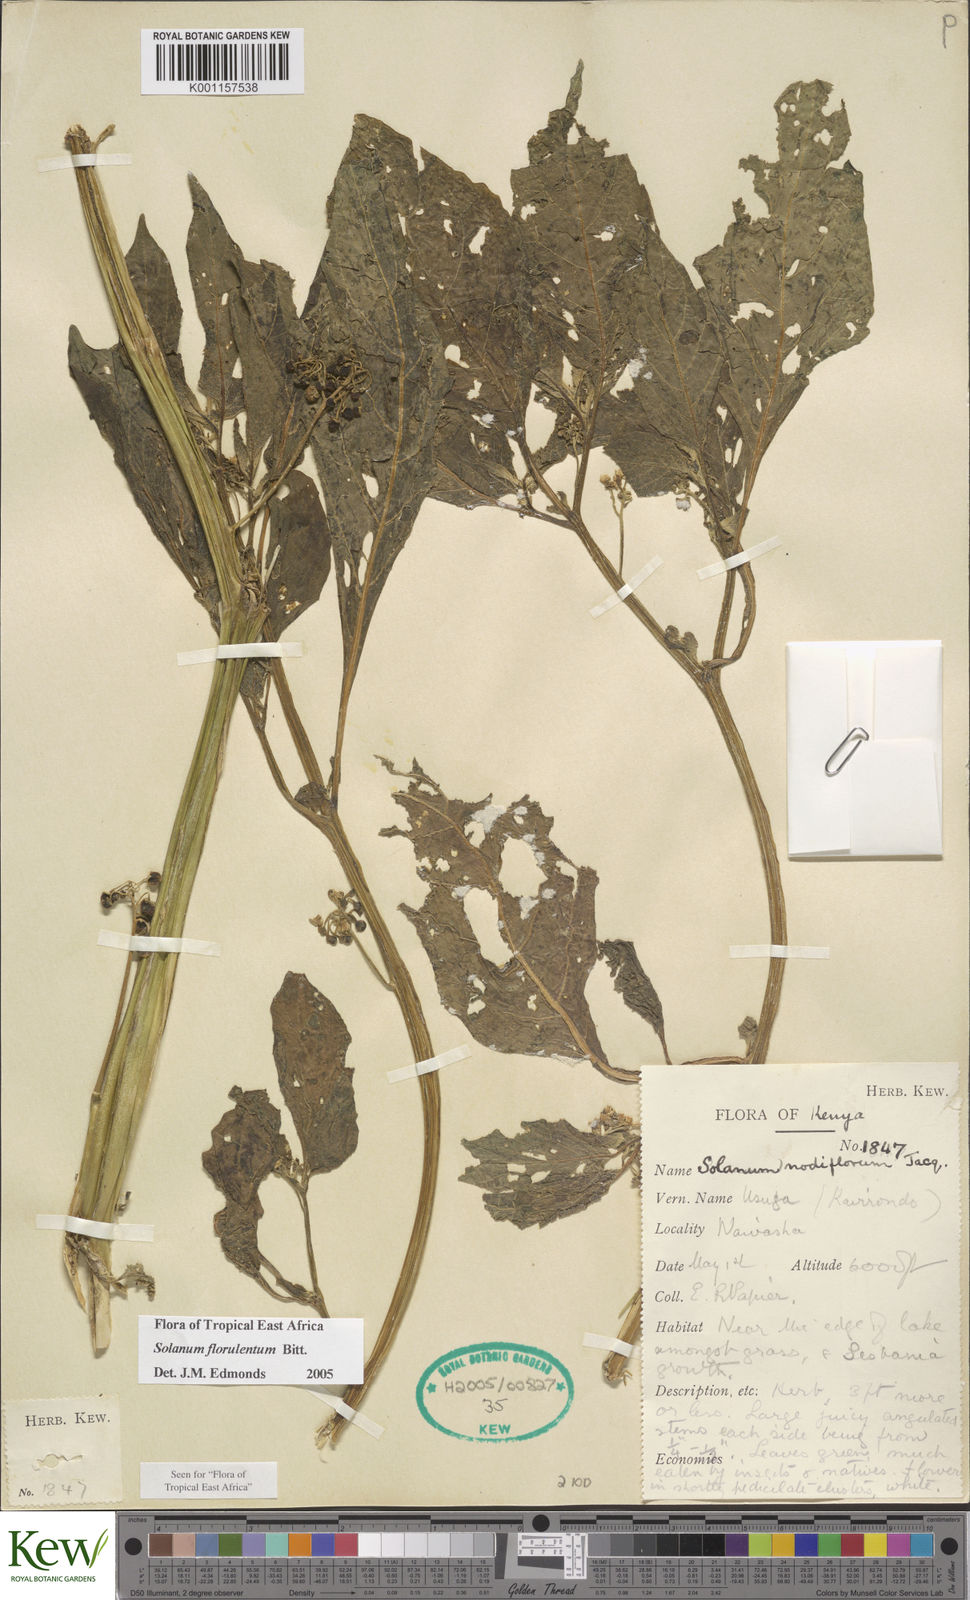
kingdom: Plantae
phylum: Tracheophyta
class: Magnoliopsida
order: Solanales
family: Solanaceae
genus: Solanum
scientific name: Solanum tarderemotum
